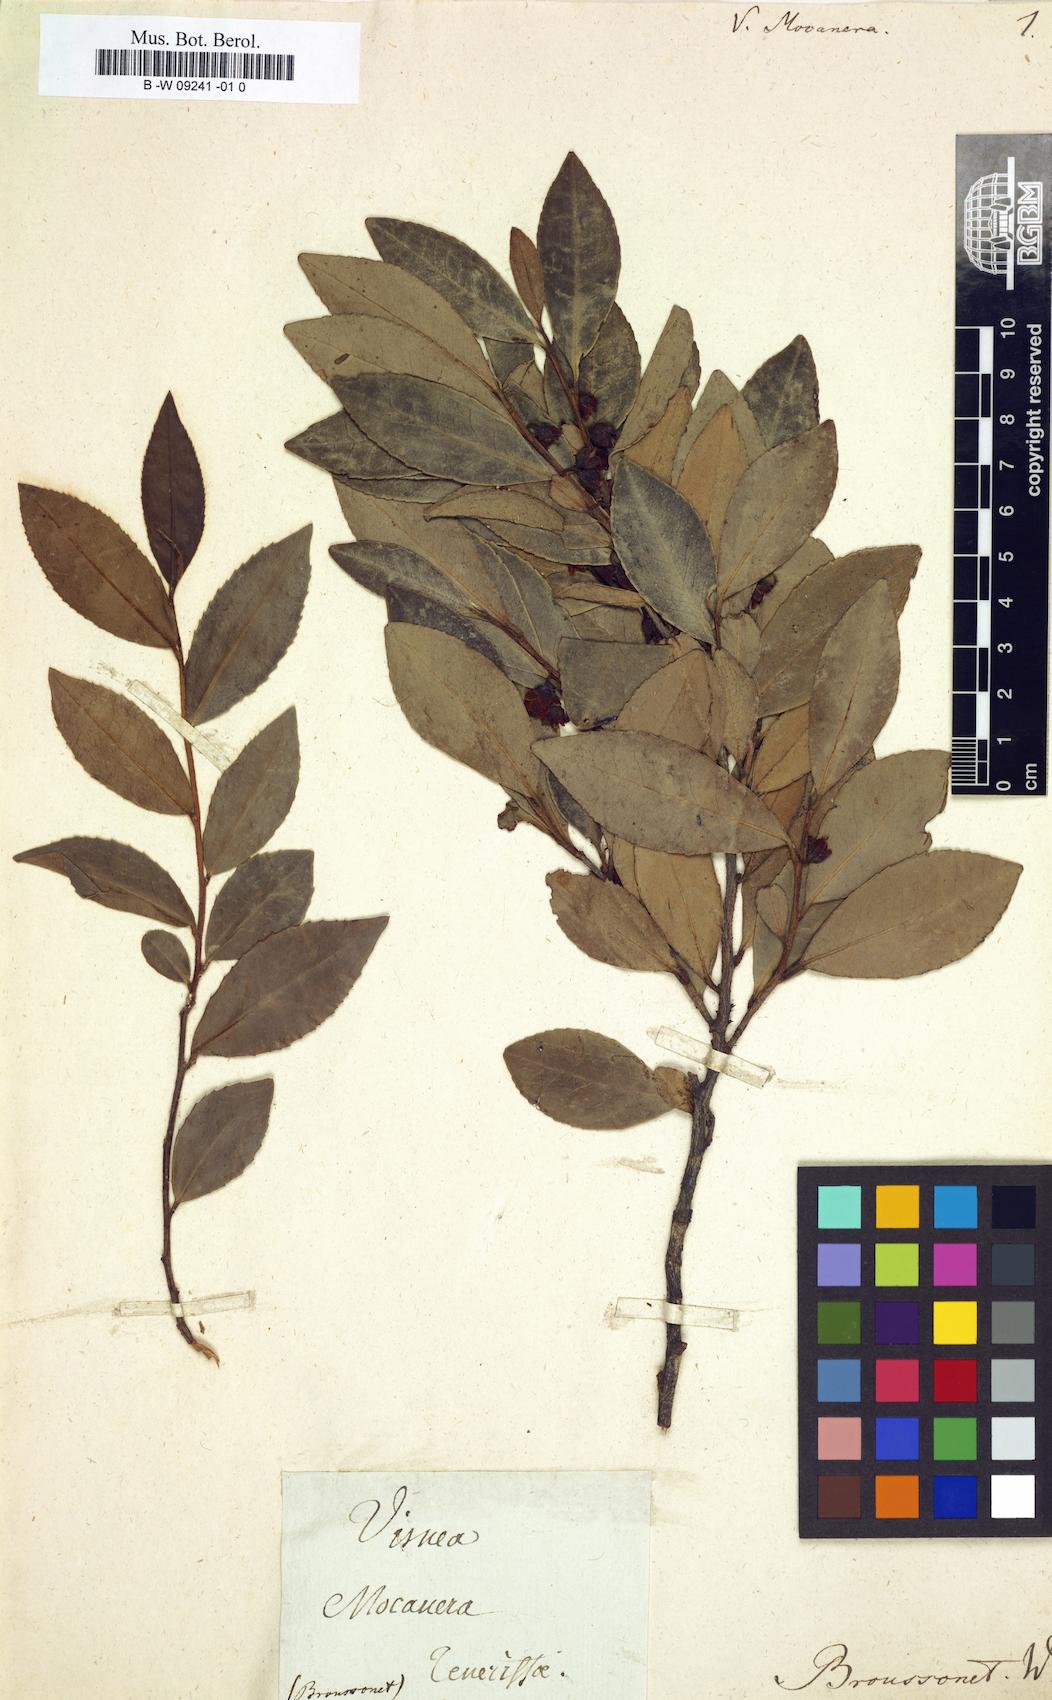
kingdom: Plantae
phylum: Tracheophyta
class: Magnoliopsida
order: Ericales
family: Pentaphylacaceae
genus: Visnea
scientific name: Visnea mocanera
